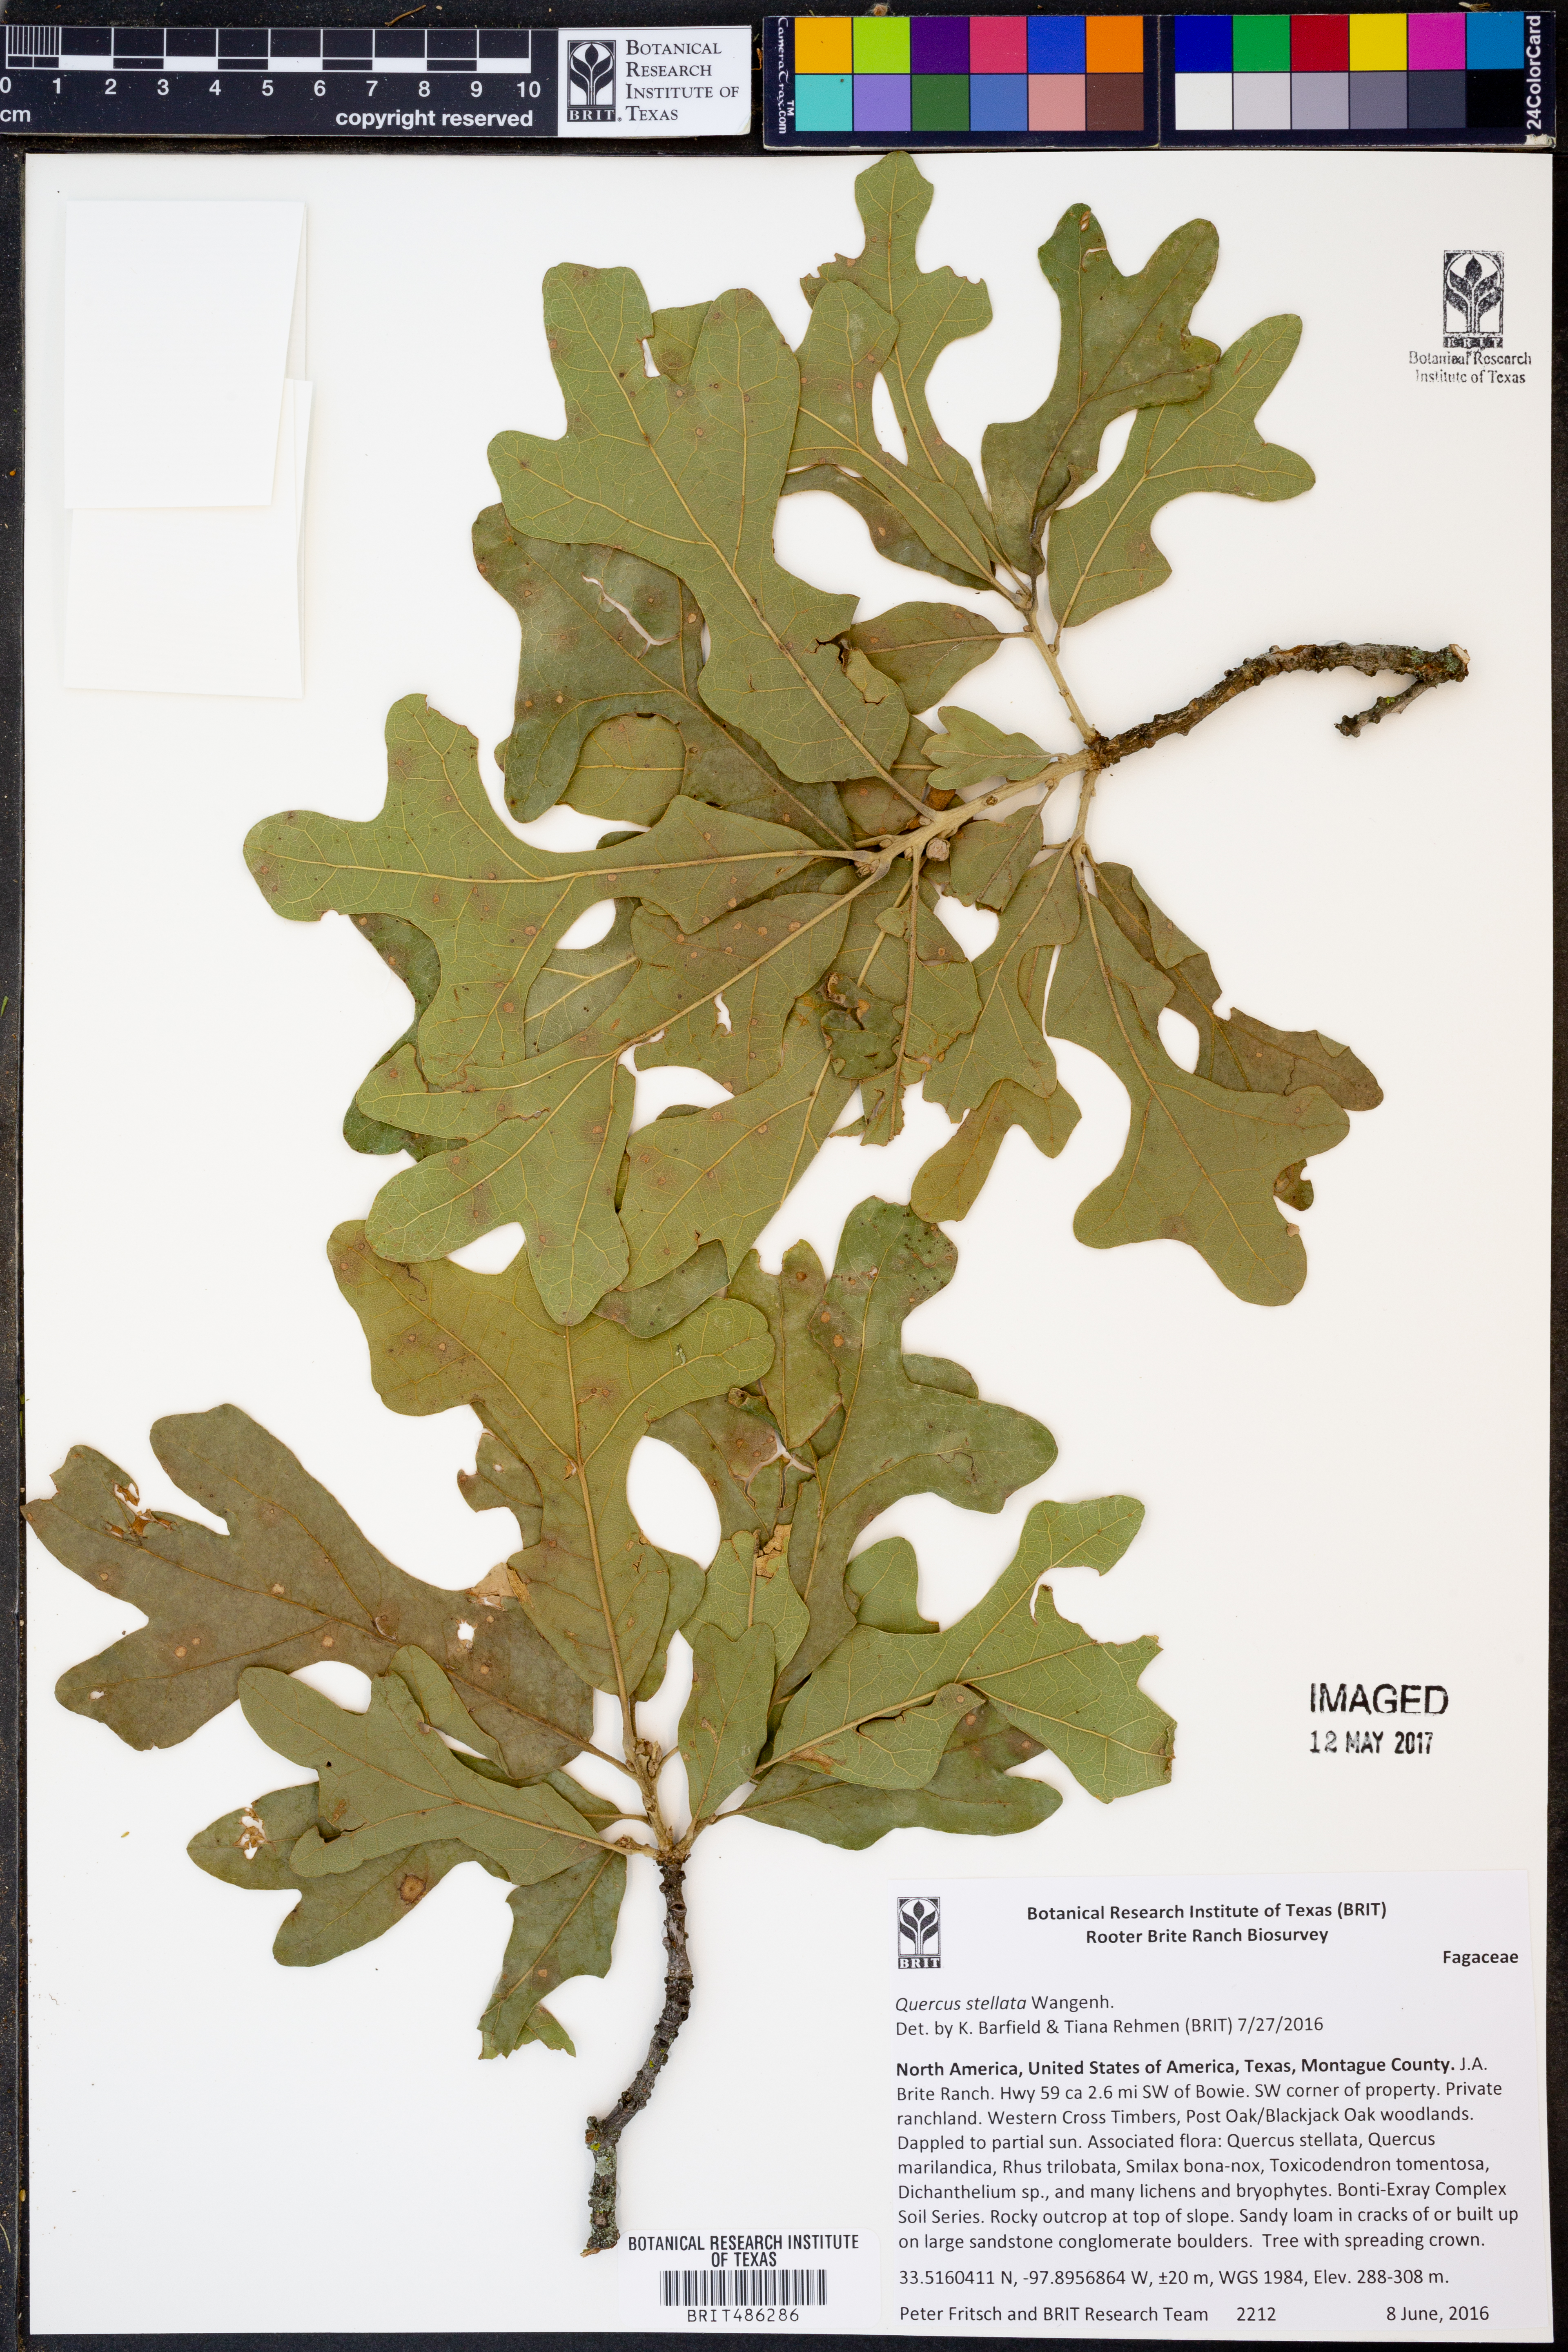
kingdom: Plantae
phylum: Tracheophyta
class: Magnoliopsida
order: Fagales
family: Fagaceae
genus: Quercus
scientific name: Quercus stellata
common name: Post oak
